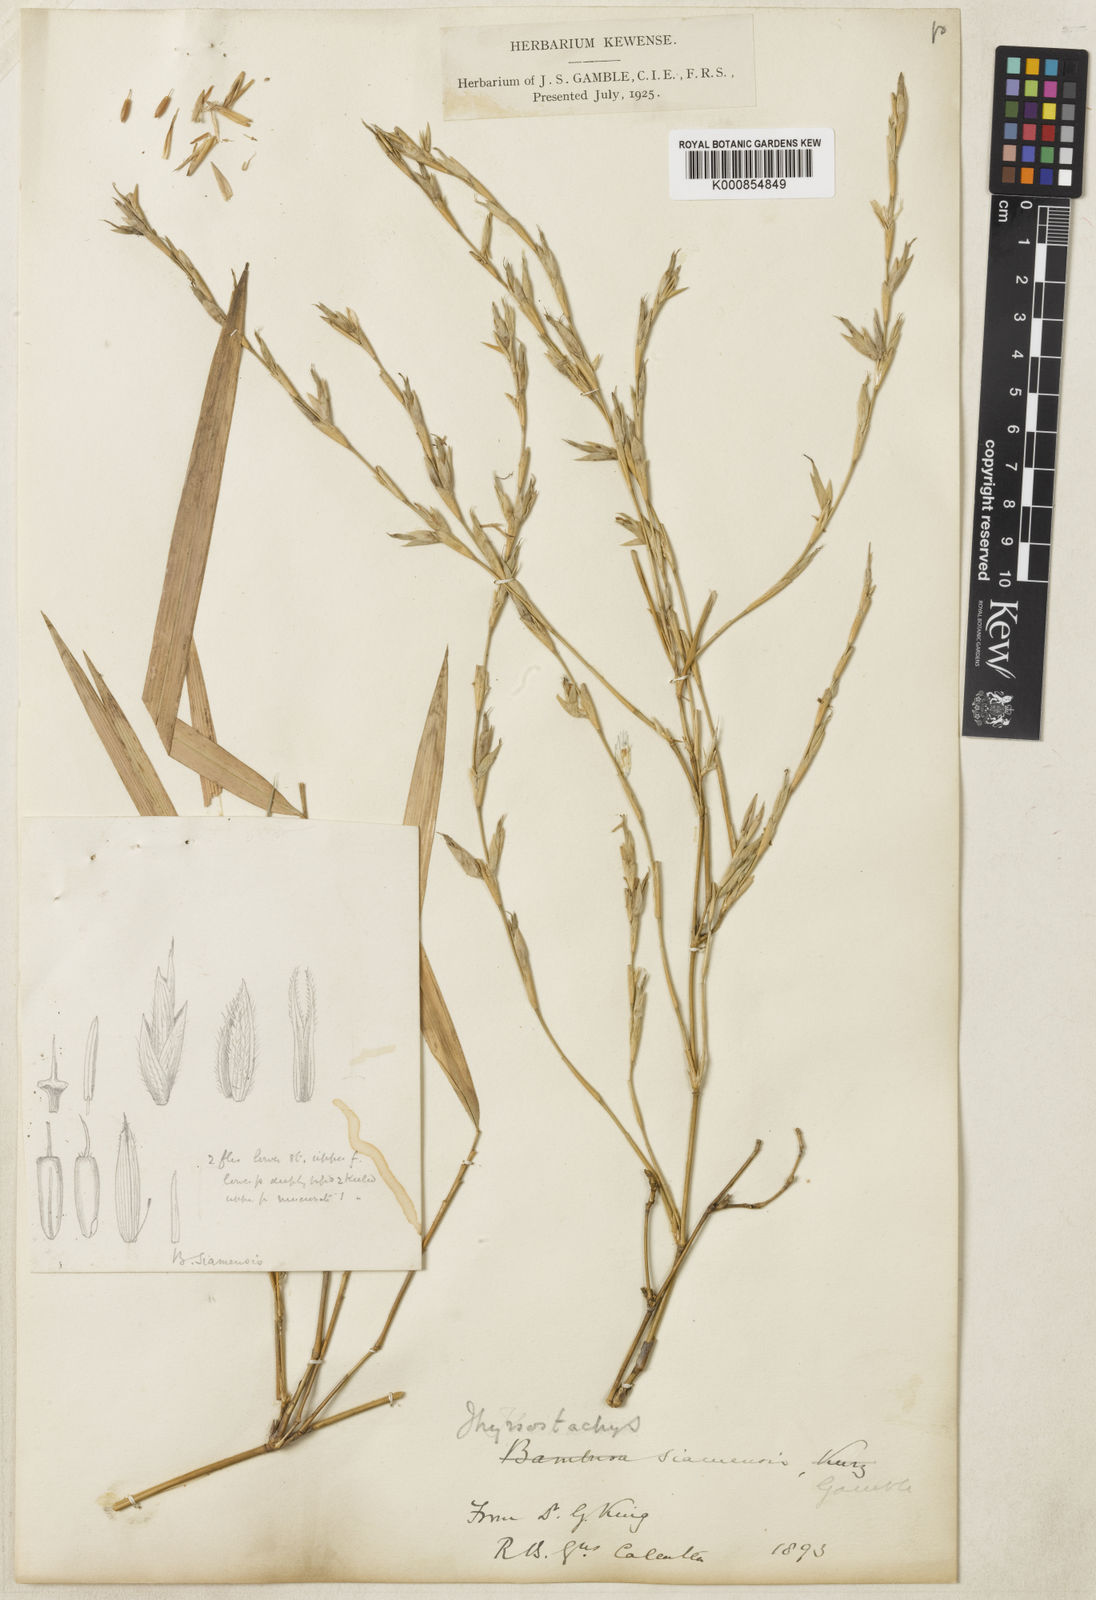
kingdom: Plantae
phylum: Tracheophyta
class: Liliopsida
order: Poales
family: Poaceae
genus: Thyrsostachys
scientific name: Thyrsostachys siamensis
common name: Thailand bamboo
